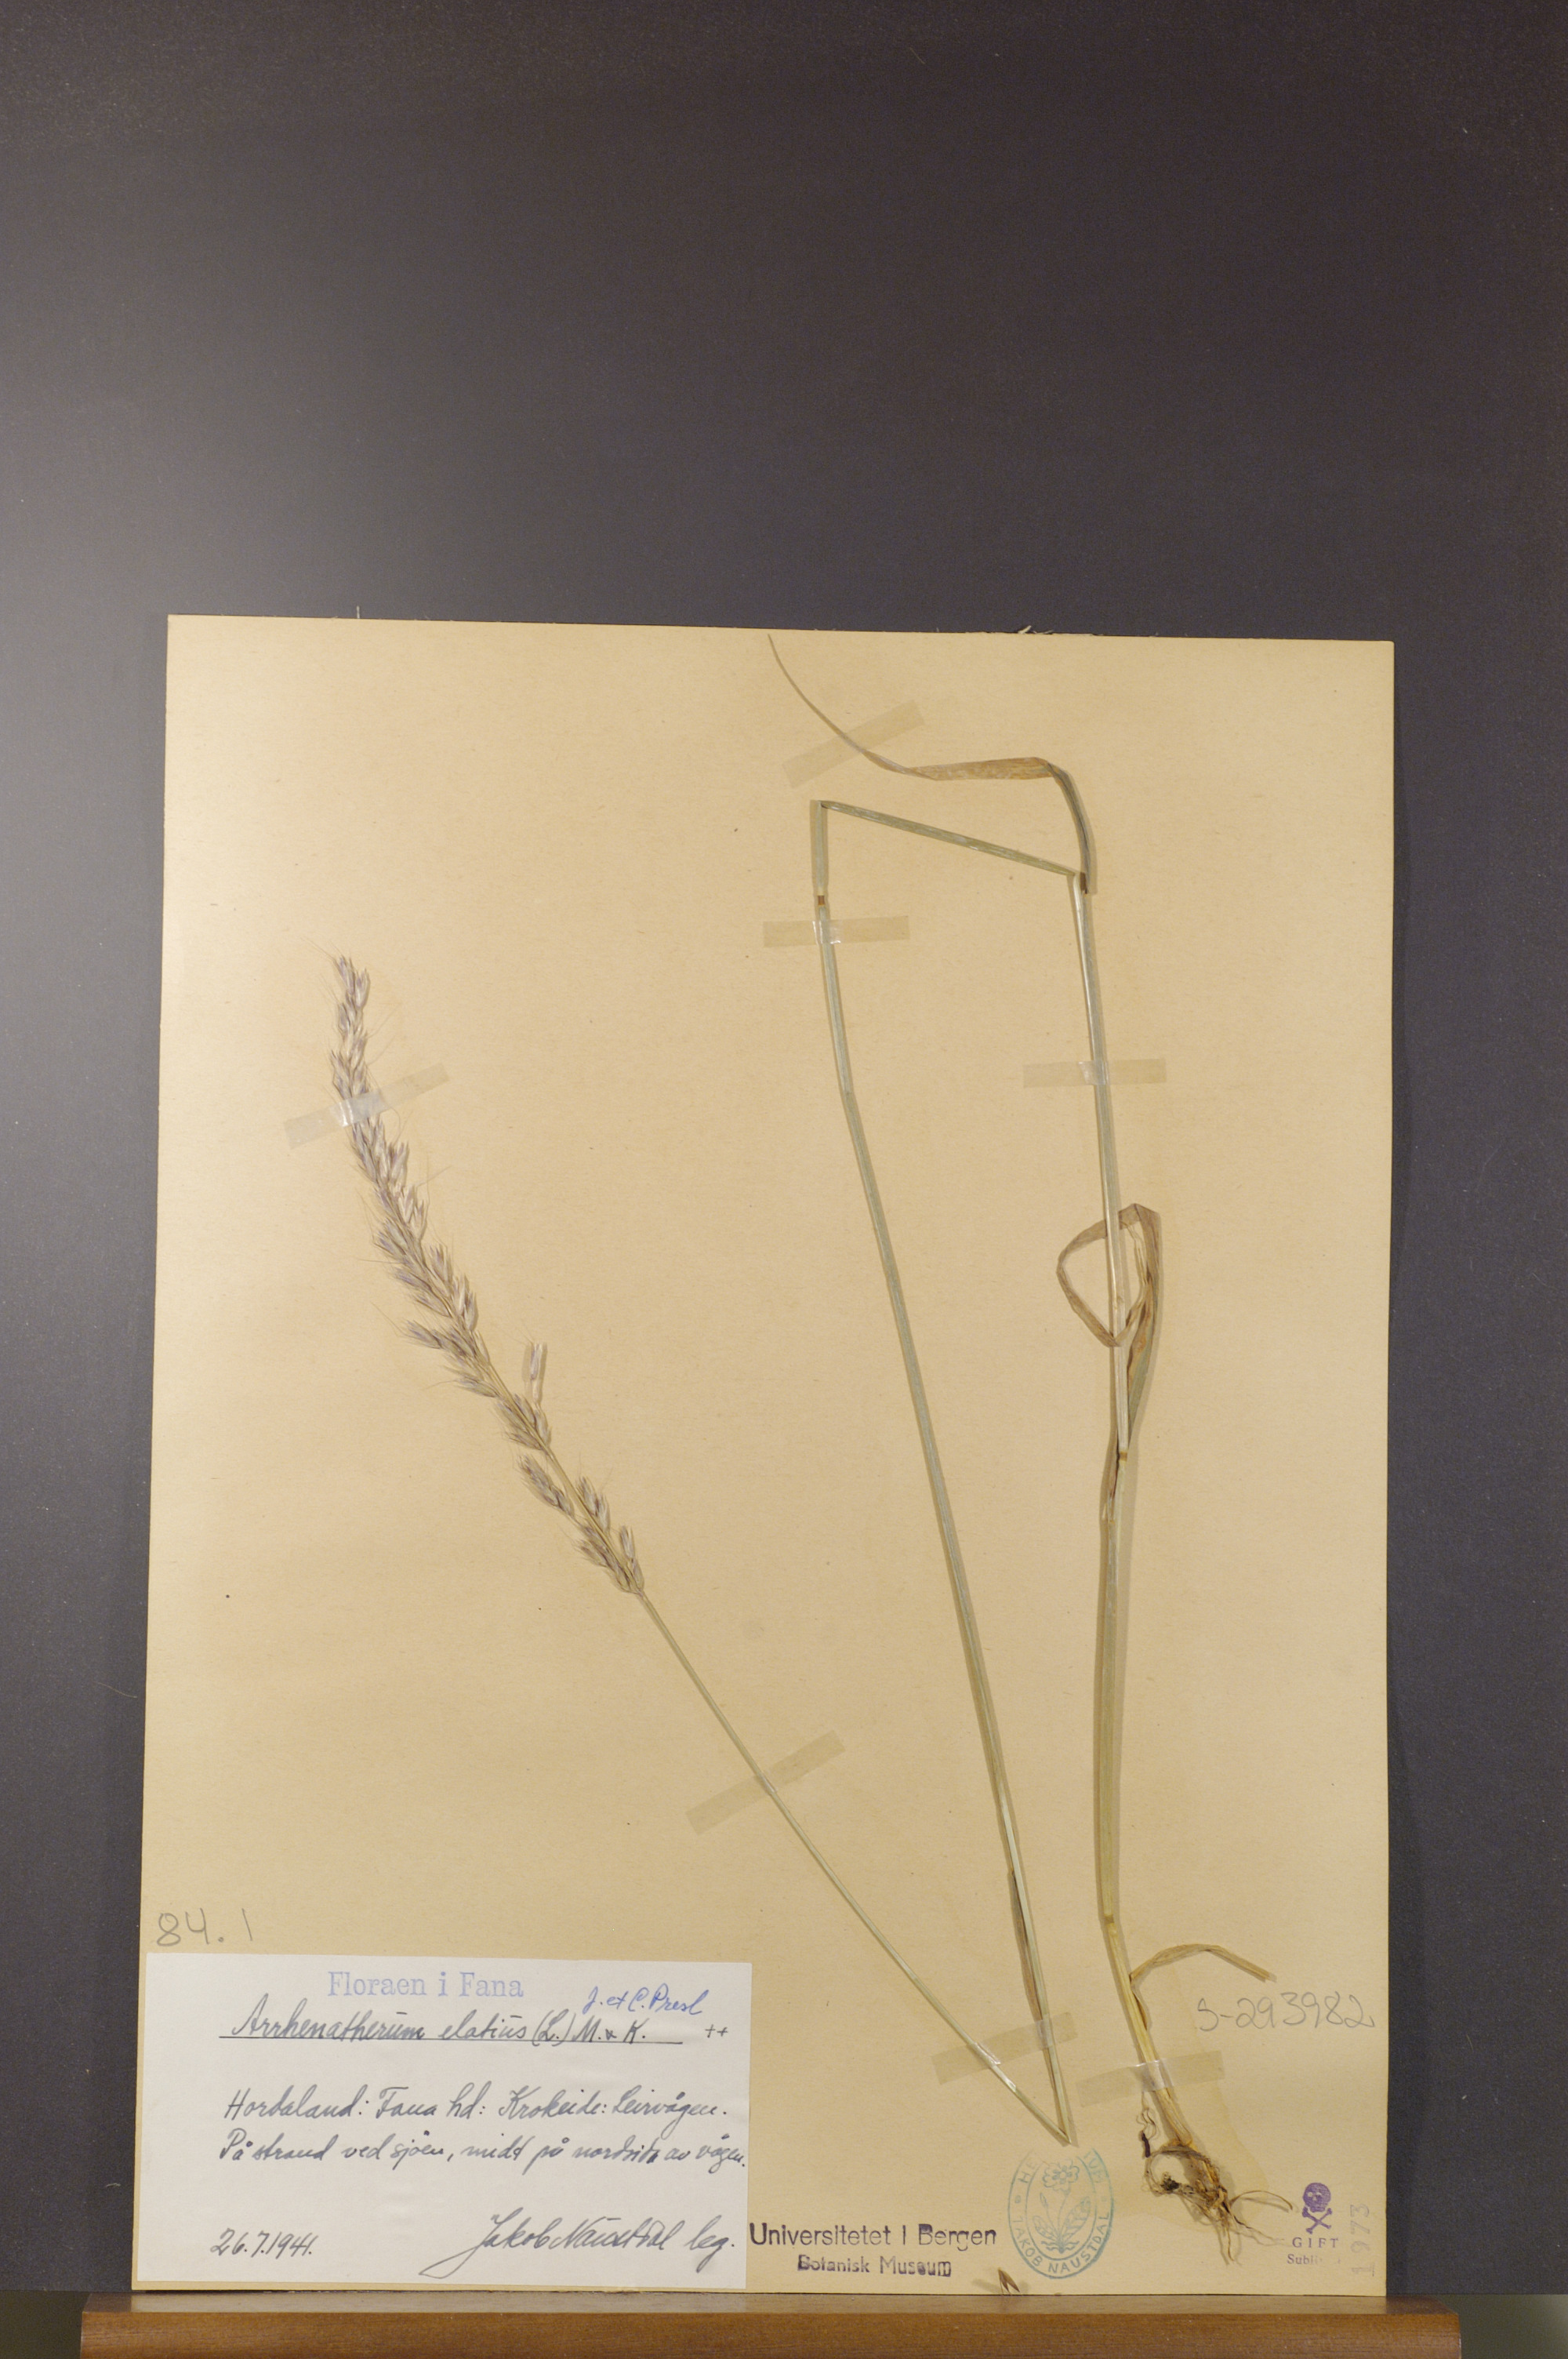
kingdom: Plantae
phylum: Tracheophyta
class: Liliopsida
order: Poales
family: Poaceae
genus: Arrhenatherum
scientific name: Arrhenatherum elatius
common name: Tall oatgrass
